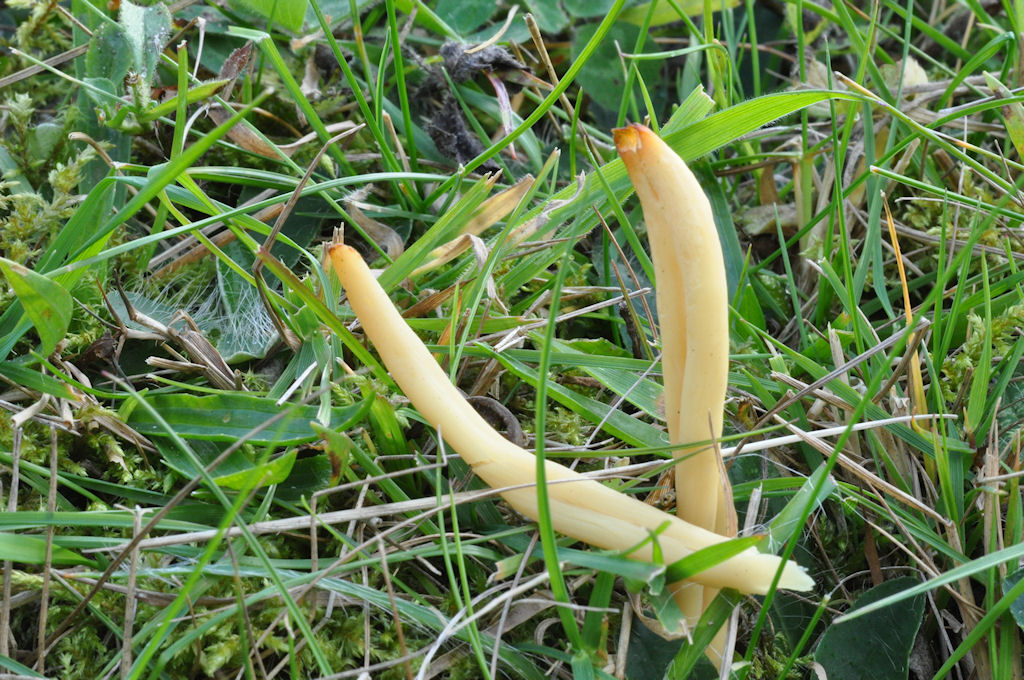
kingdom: Fungi
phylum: Basidiomycota
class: Agaricomycetes
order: Agaricales
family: Clavariaceae
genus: Clavaria
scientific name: Clavaria amoenoides
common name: bleggul køllesvamp
